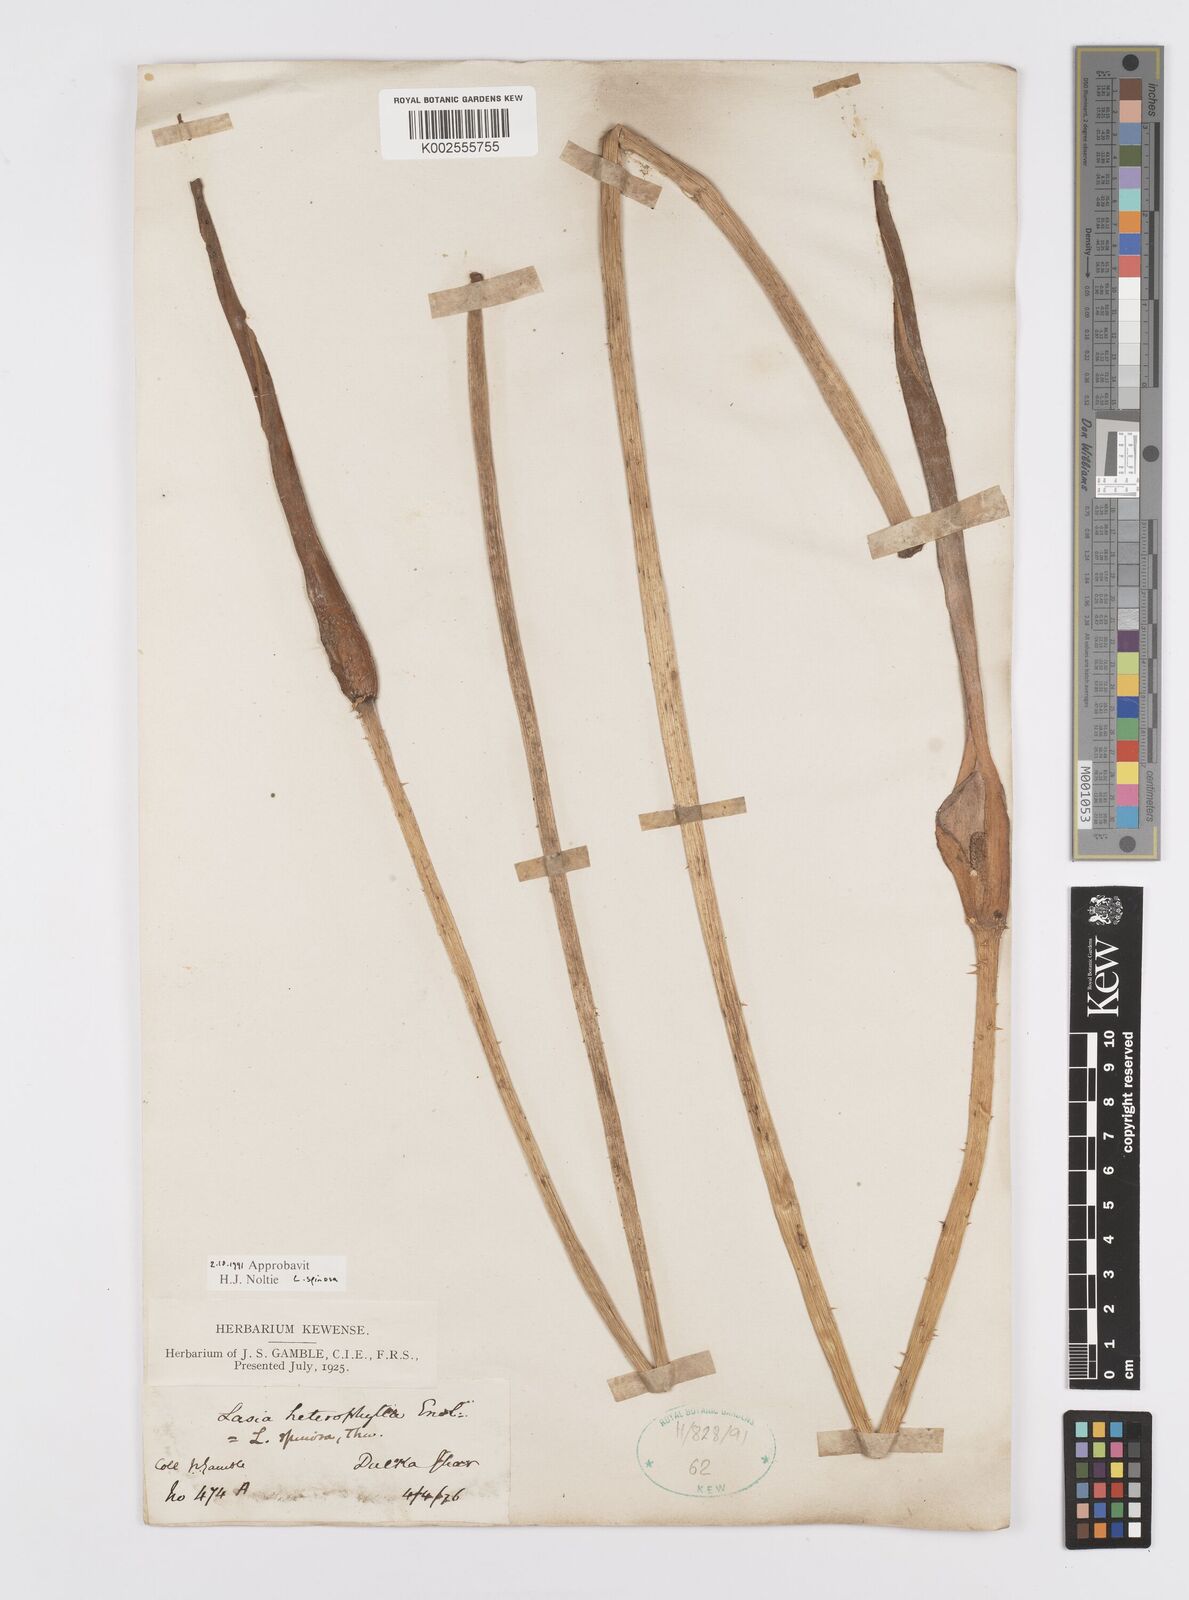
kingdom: Plantae
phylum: Tracheophyta
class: Liliopsida
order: Alismatales
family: Araceae
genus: Lasia
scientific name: Lasia spinosa
